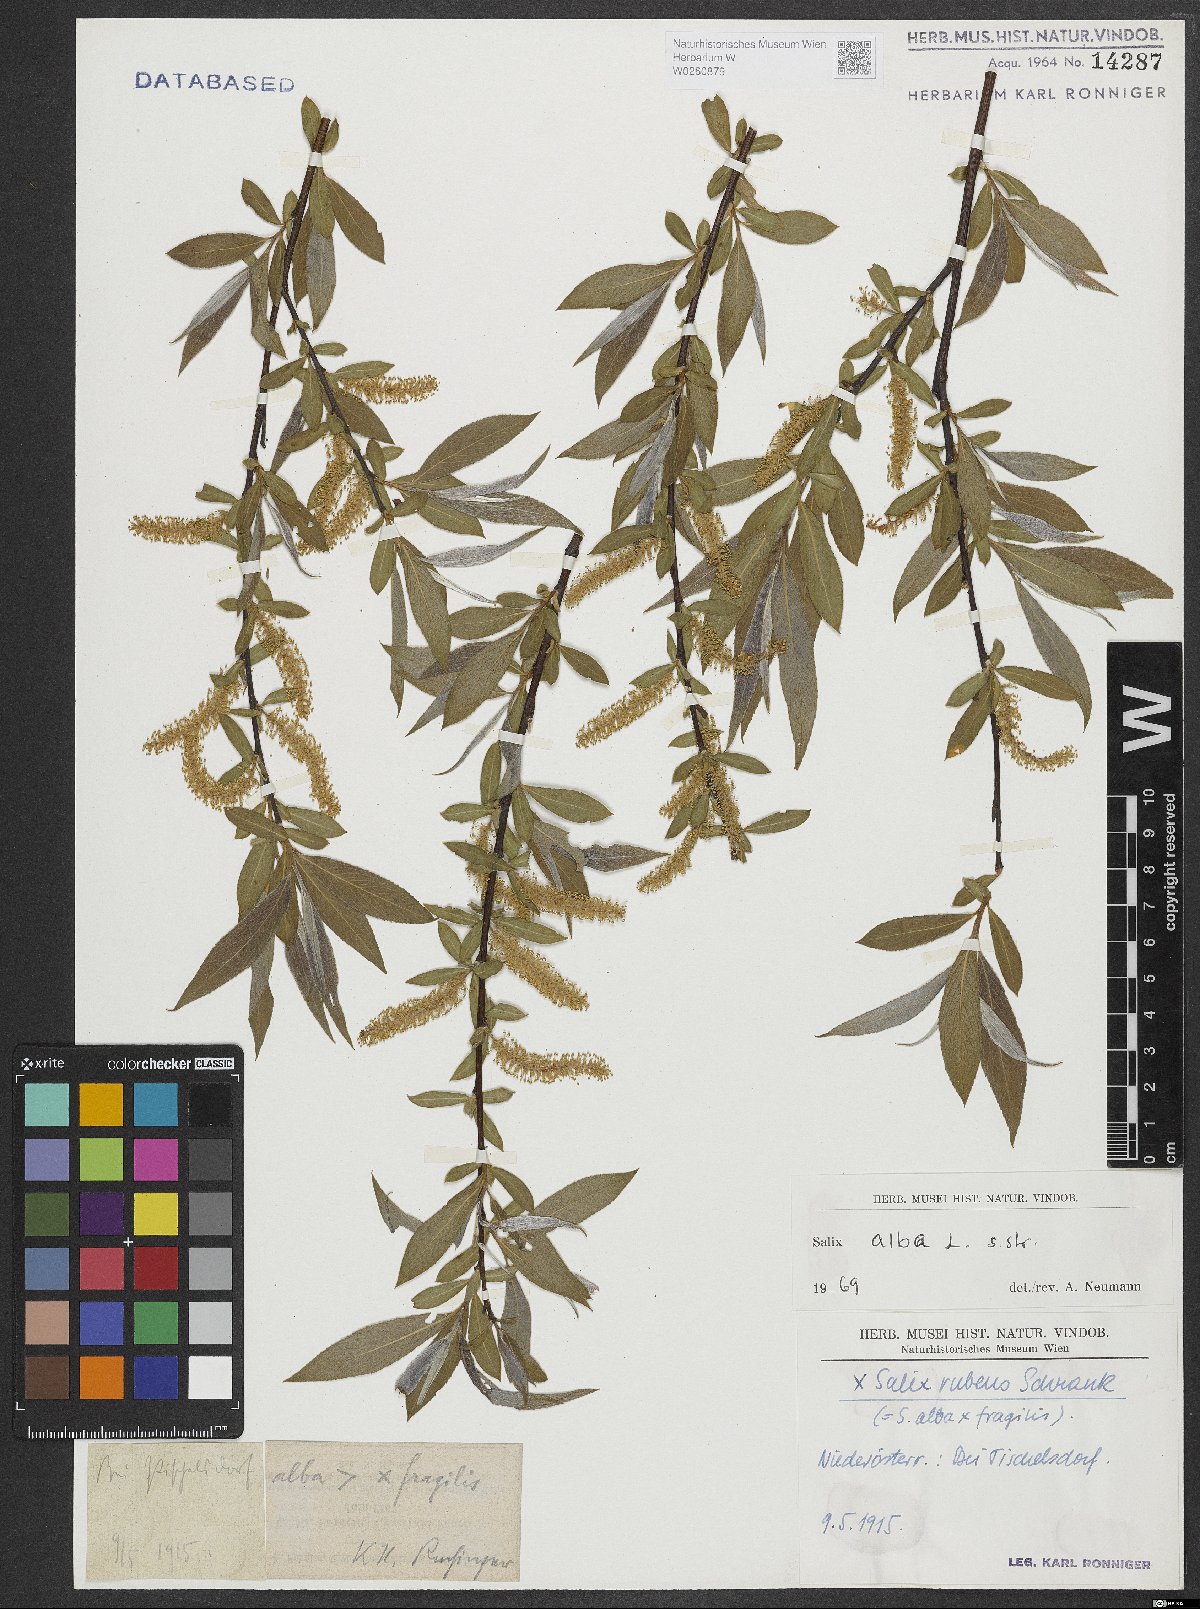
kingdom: Plantae
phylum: Tracheophyta
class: Magnoliopsida
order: Malpighiales
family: Salicaceae
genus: Salix
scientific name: Salix alba
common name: White willow
